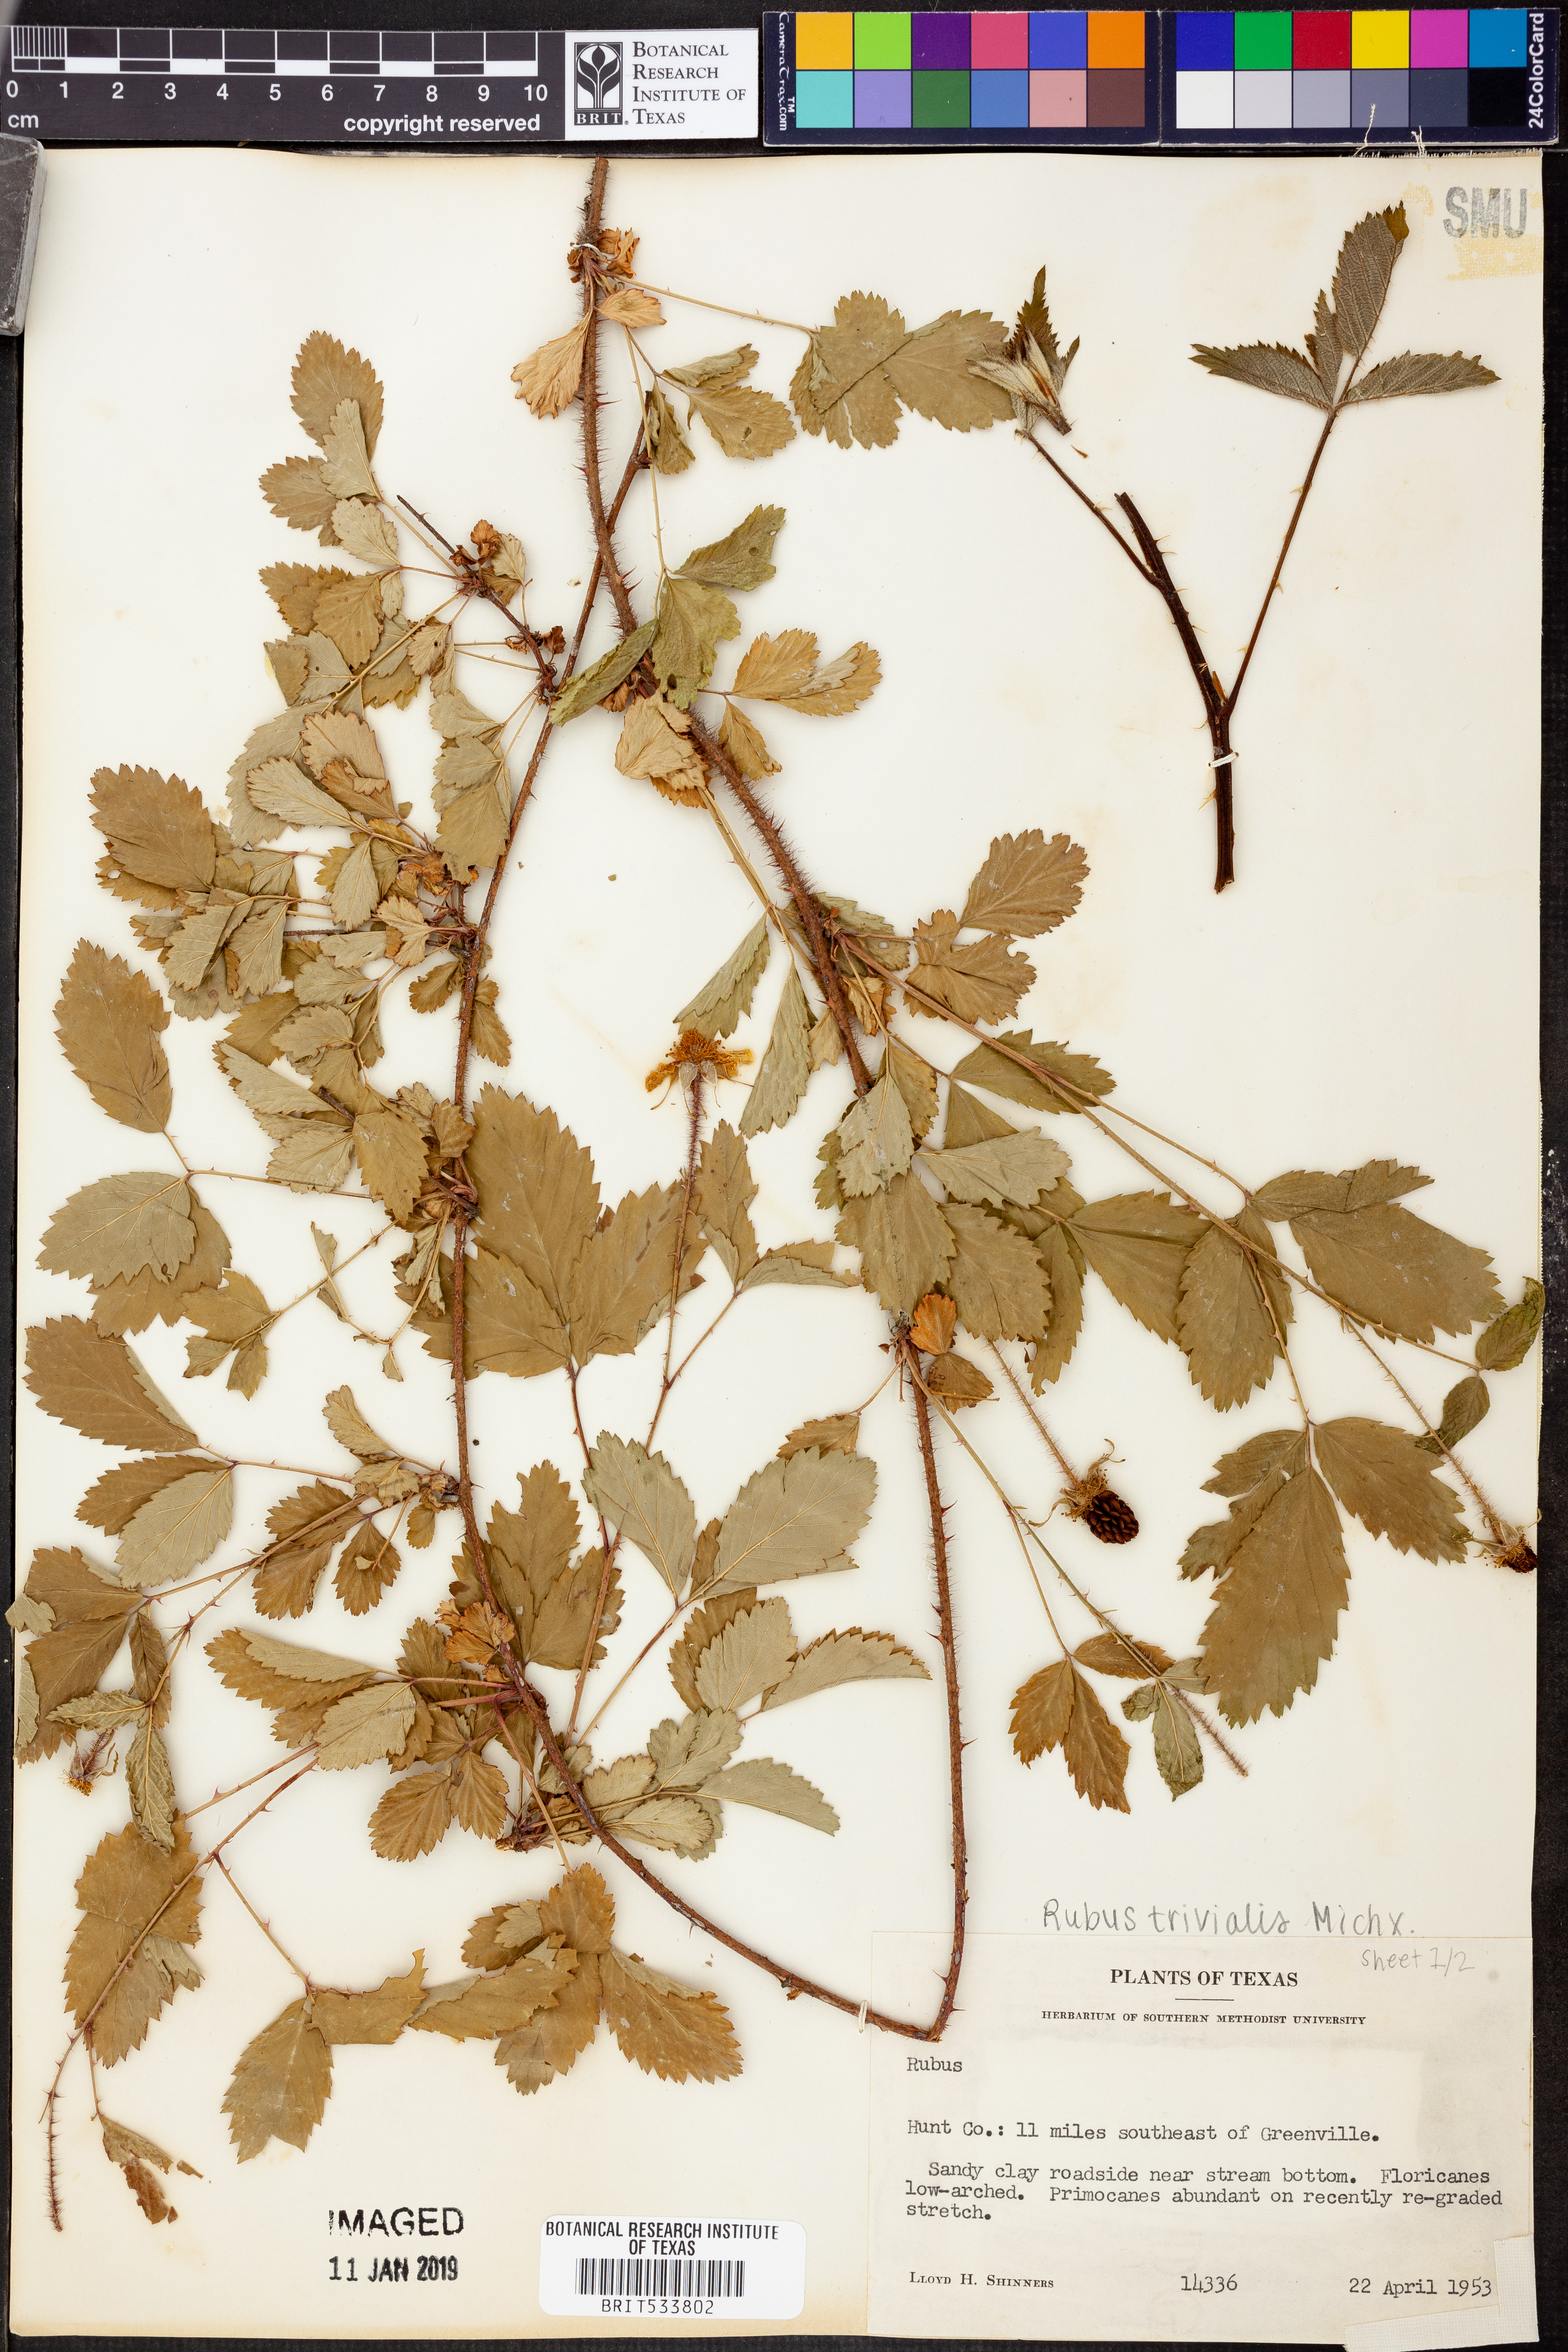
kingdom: Plantae
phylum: Tracheophyta
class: Magnoliopsida
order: Rosales
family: Rosaceae
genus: Rubus
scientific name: Rubus trivialis
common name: Southern dewberry
